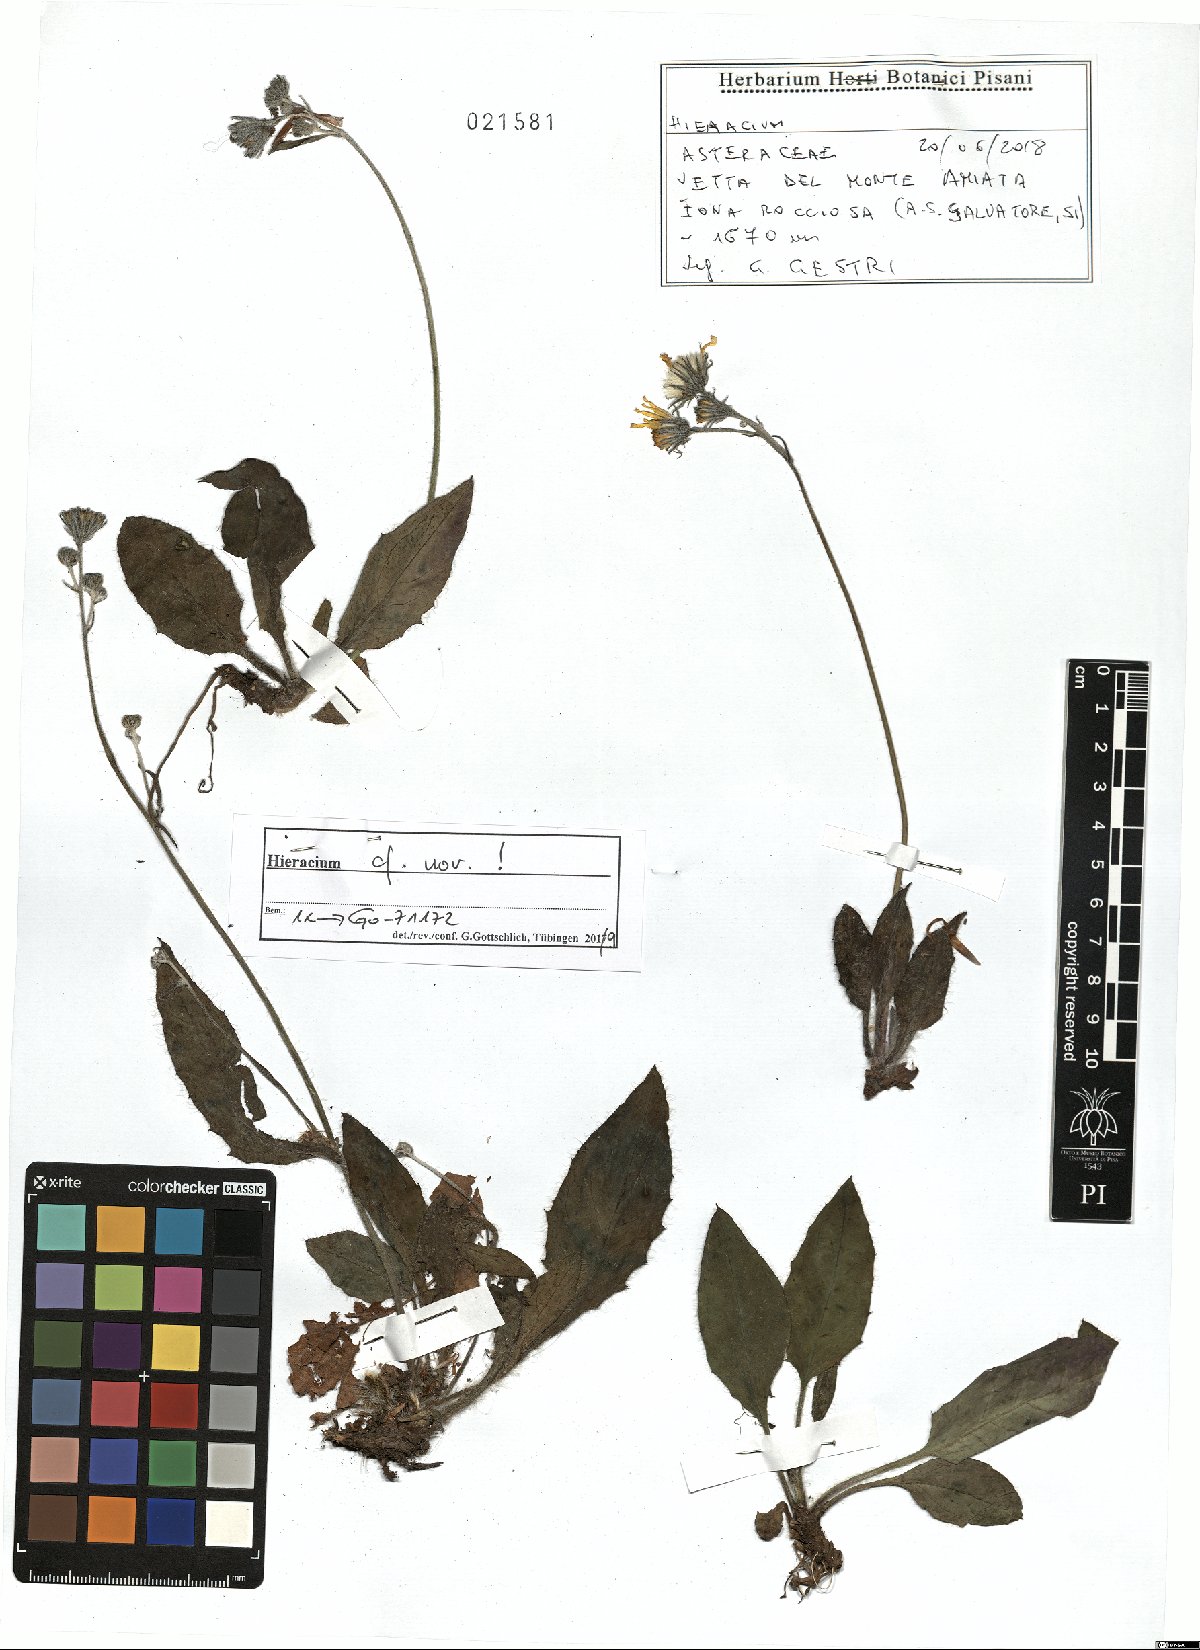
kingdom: Plantae
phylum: Tracheophyta
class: Magnoliopsida
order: Asterales
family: Asteraceae
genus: Hieracium
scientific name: Hieracium
